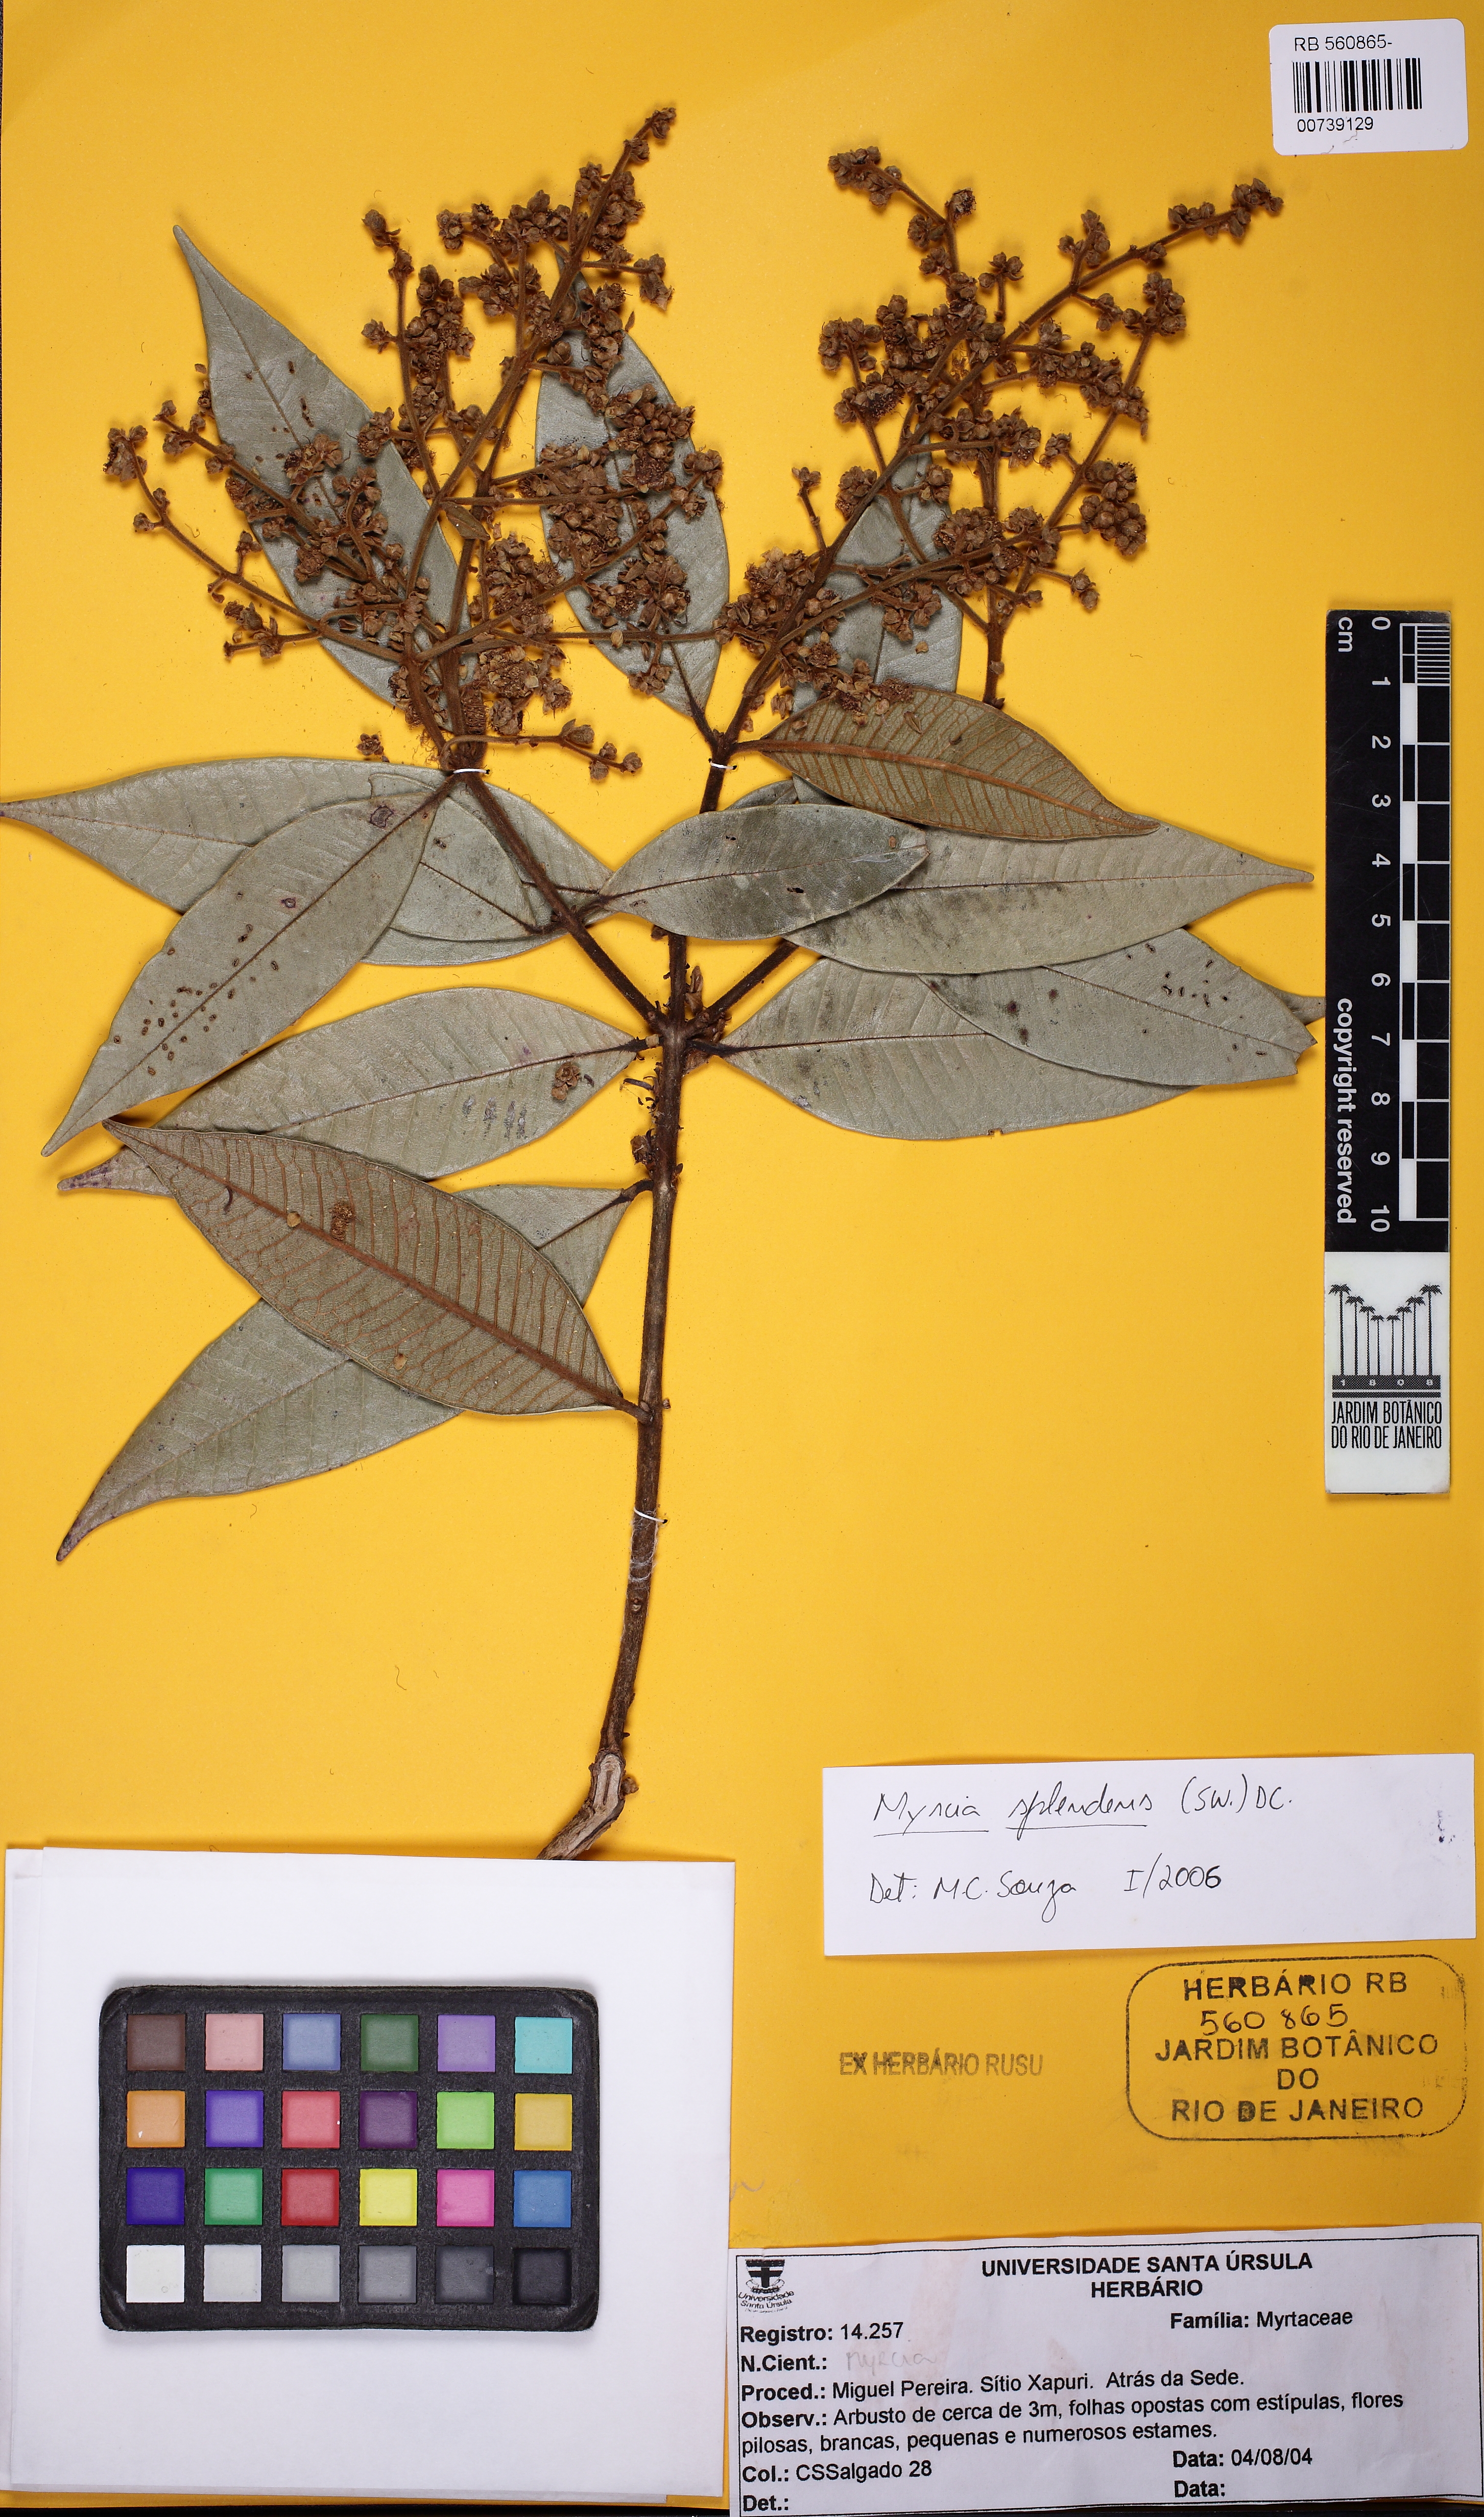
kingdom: Plantae
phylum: Tracheophyta
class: Magnoliopsida
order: Myrtales
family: Myrtaceae
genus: Myrcia
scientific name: Myrcia splendens
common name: Surinam cherry
